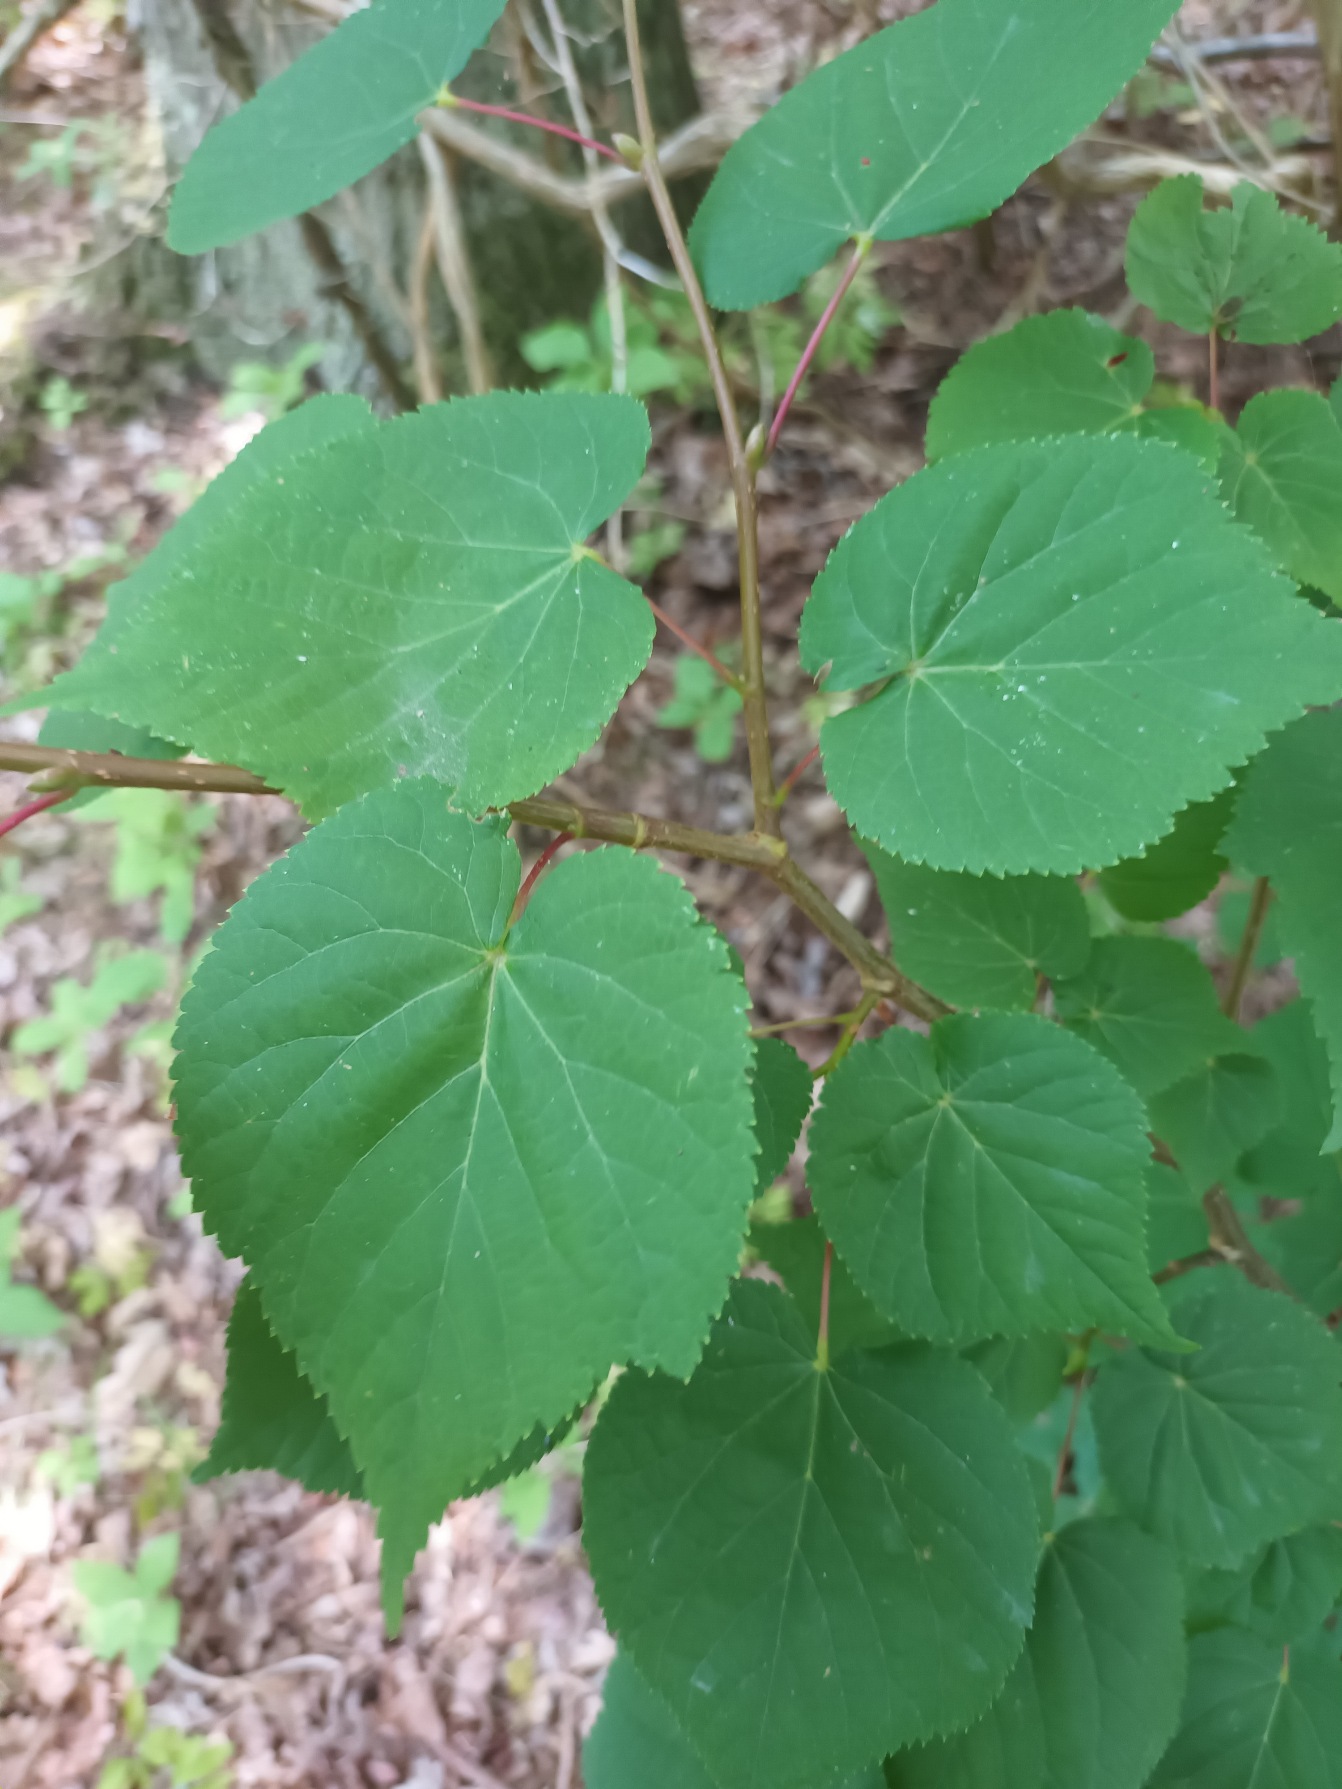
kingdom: Plantae
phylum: Tracheophyta
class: Magnoliopsida
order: Malvales
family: Malvaceae
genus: Tilia
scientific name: Tilia cordata
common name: Småbladet lind
